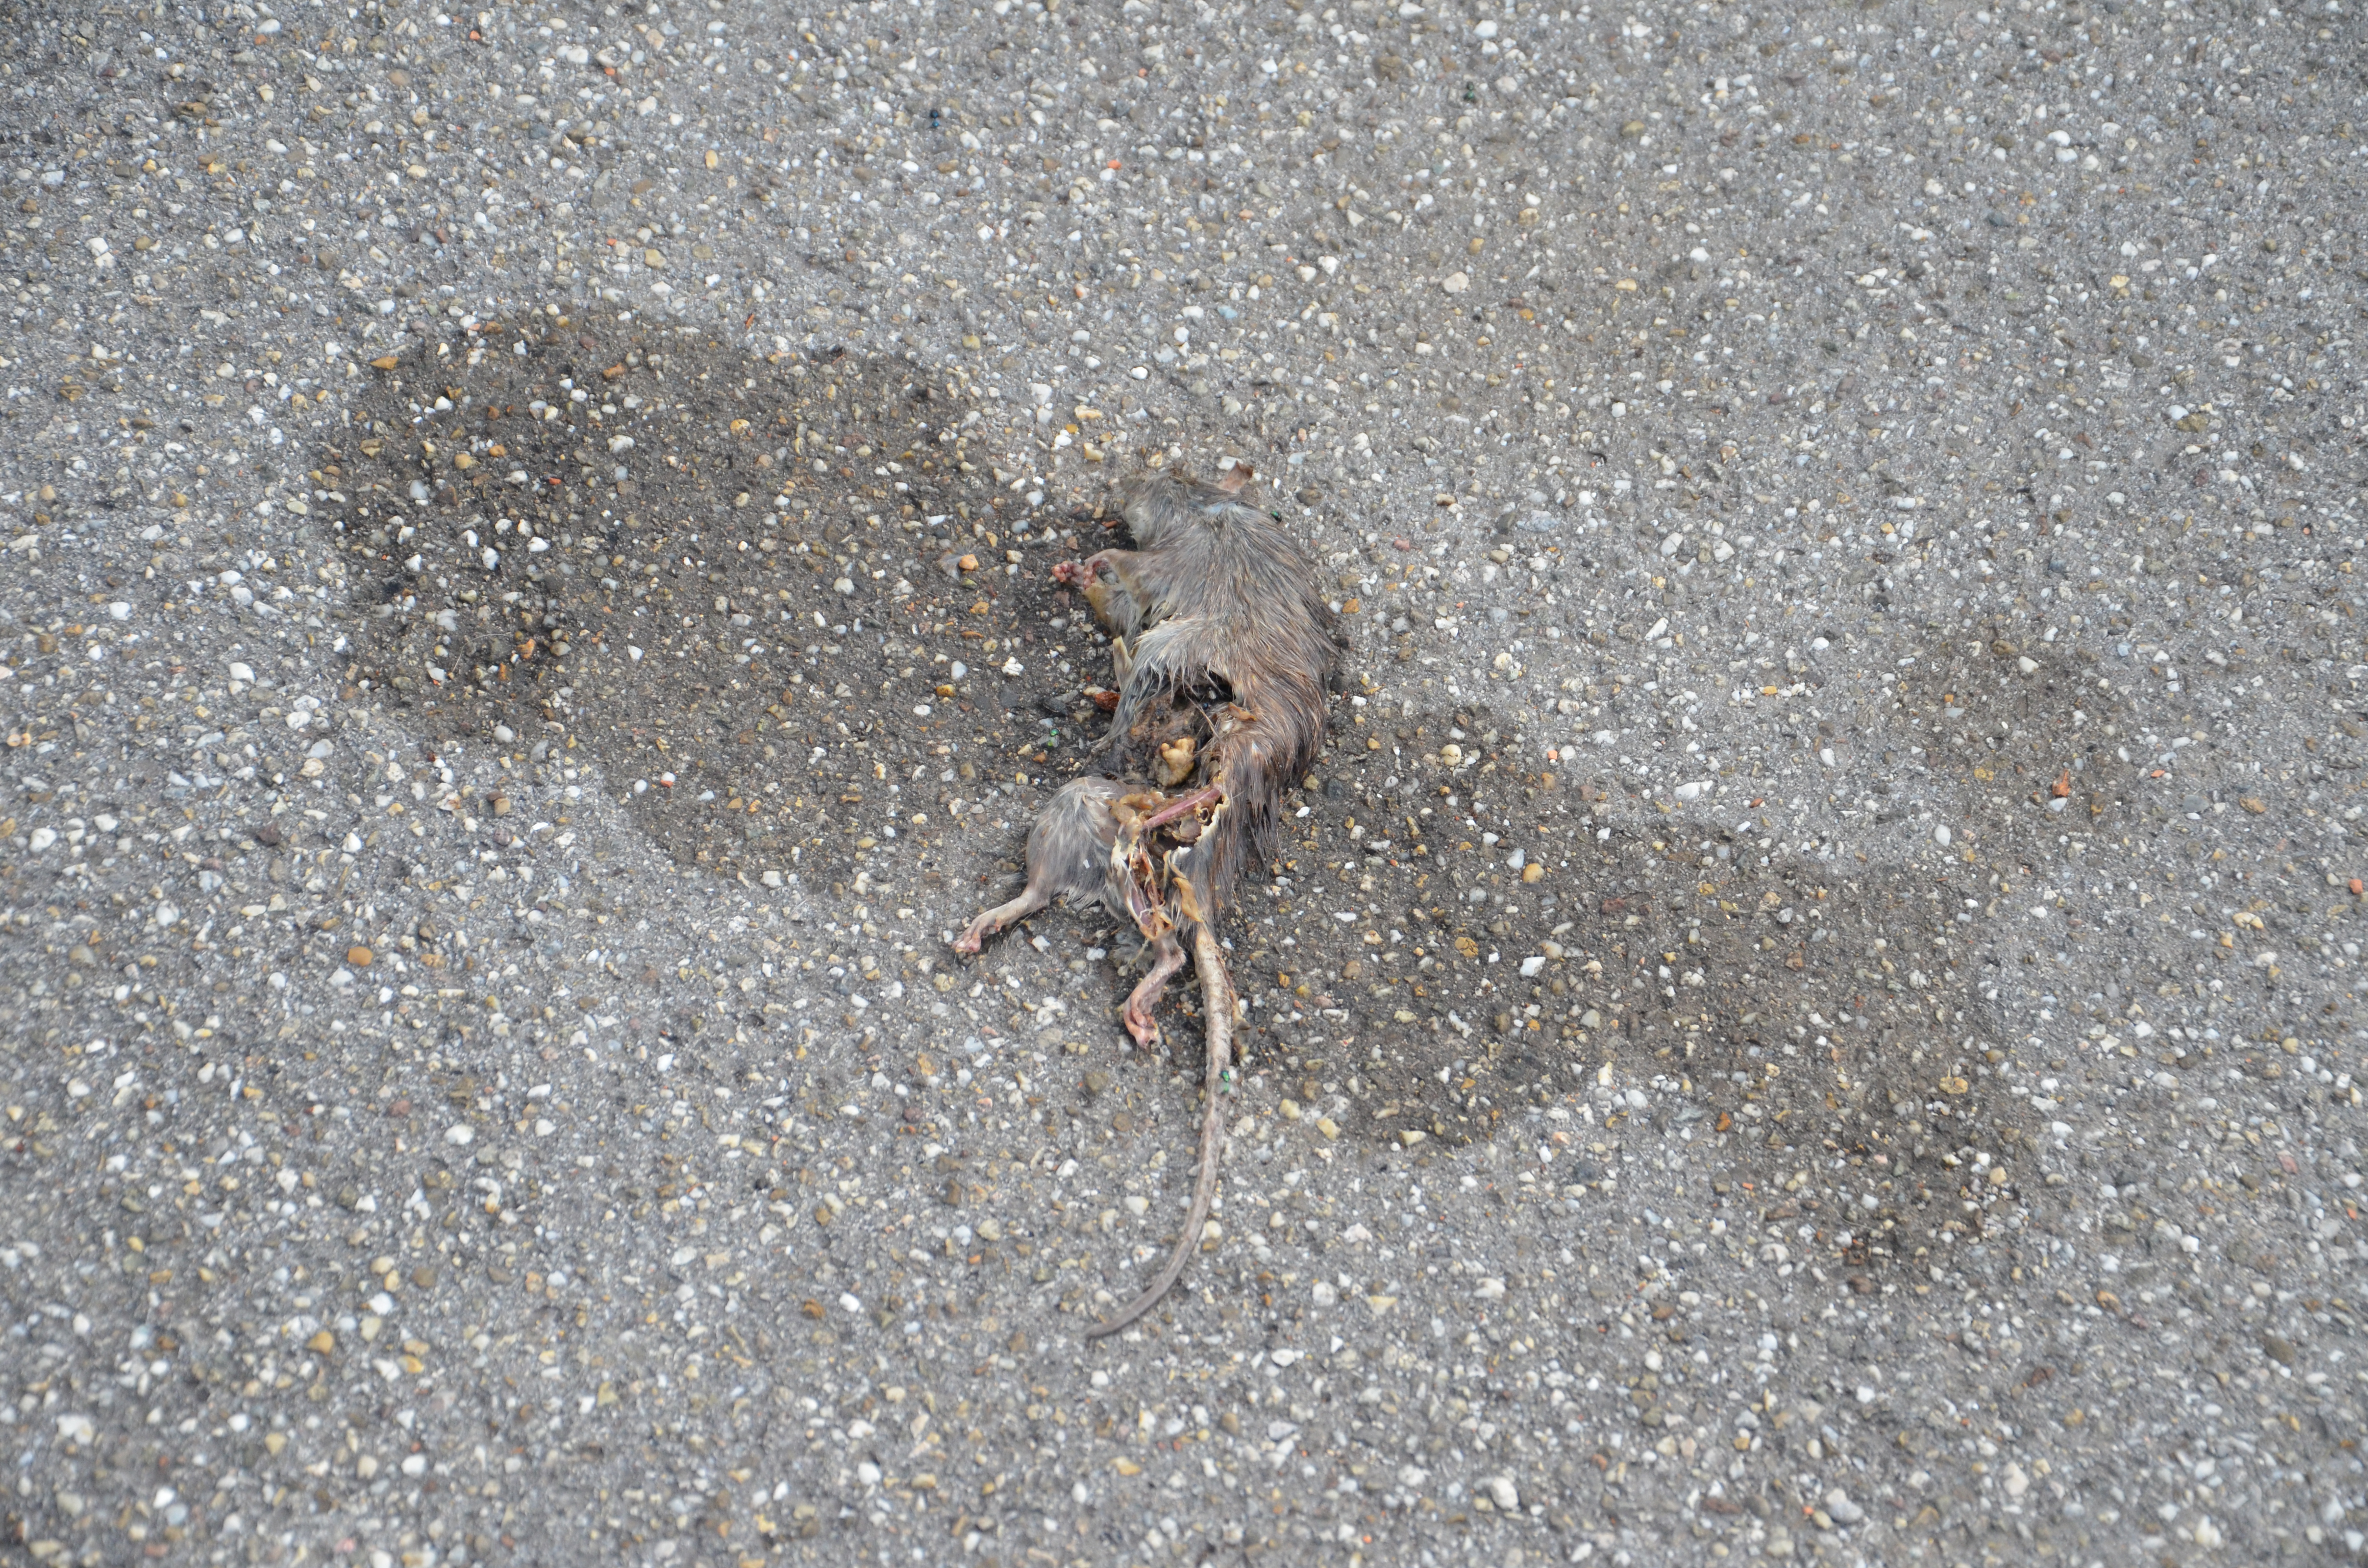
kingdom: Animalia
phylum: Chordata
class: Mammalia
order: Rodentia
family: Muridae
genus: Rattus
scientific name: Rattus norvegicus
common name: Brown rat
